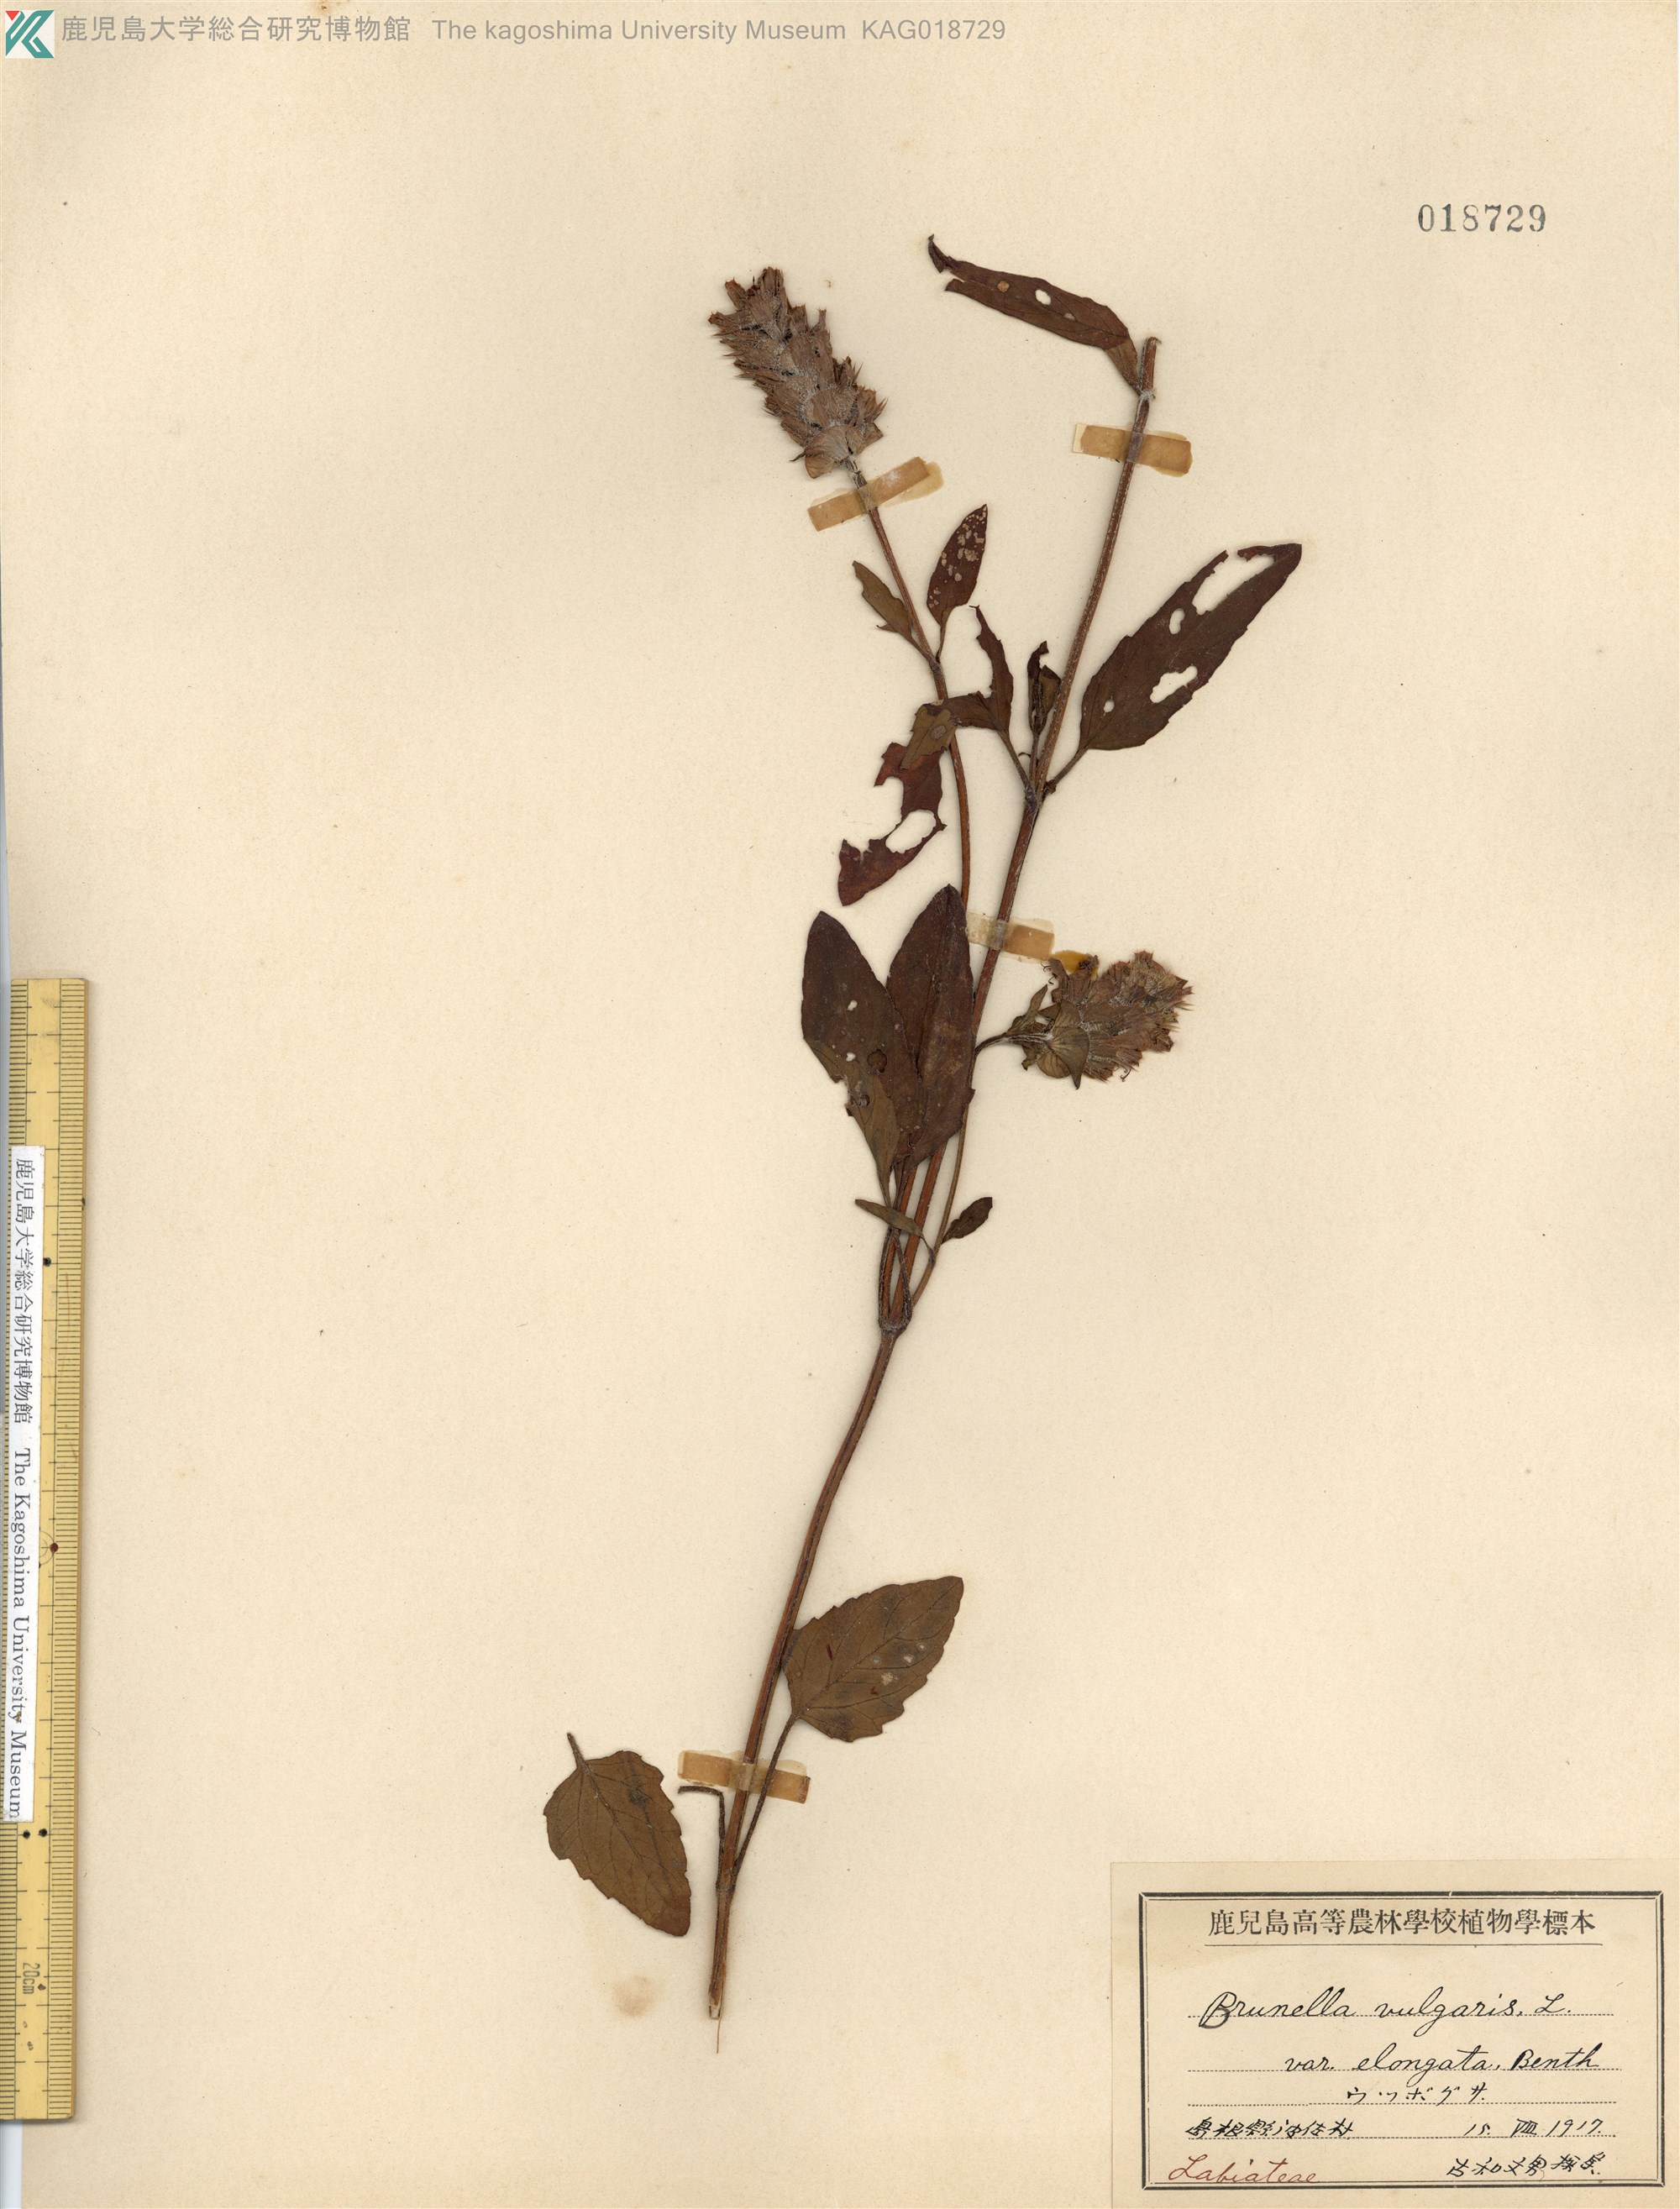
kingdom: Plantae
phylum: Tracheophyta
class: Magnoliopsida
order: Lamiales
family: Lamiaceae
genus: Prunella
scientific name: Prunella vulgaris
